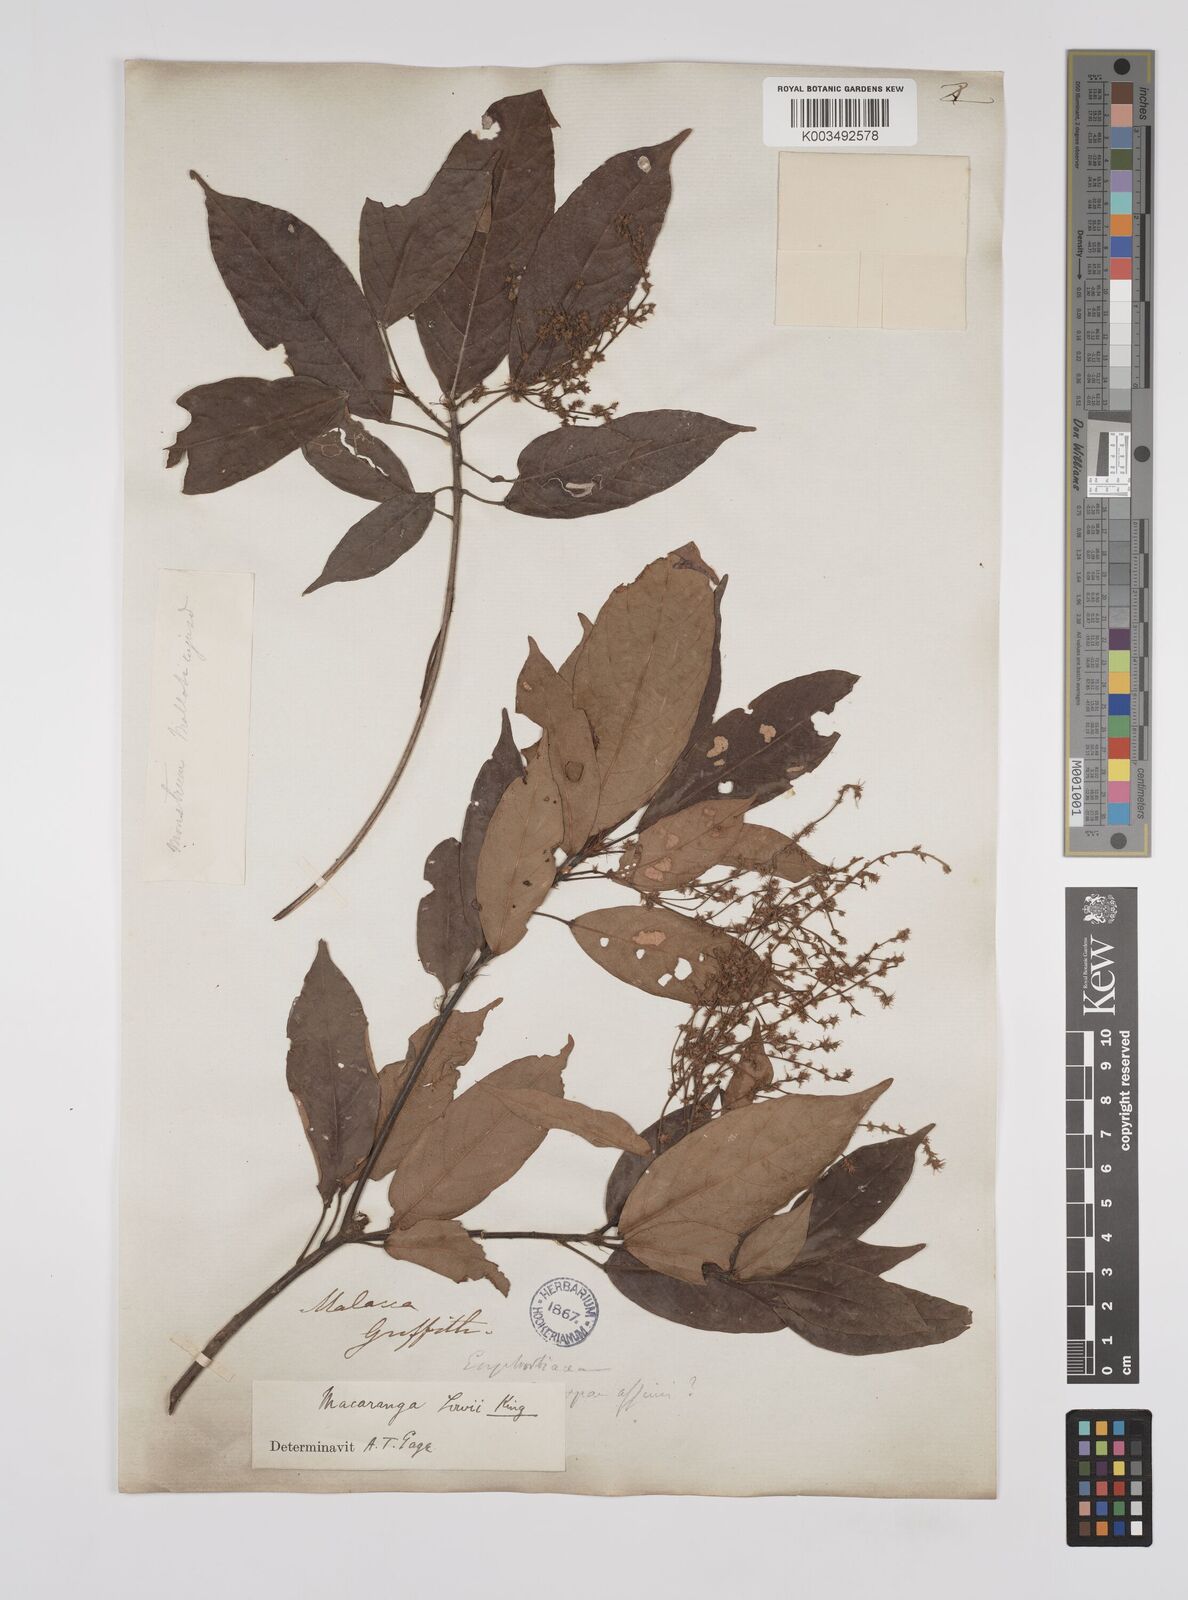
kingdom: Plantae
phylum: Tracheophyta
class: Magnoliopsida
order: Malpighiales
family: Euphorbiaceae
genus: Macaranga
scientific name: Macaranga lowii
